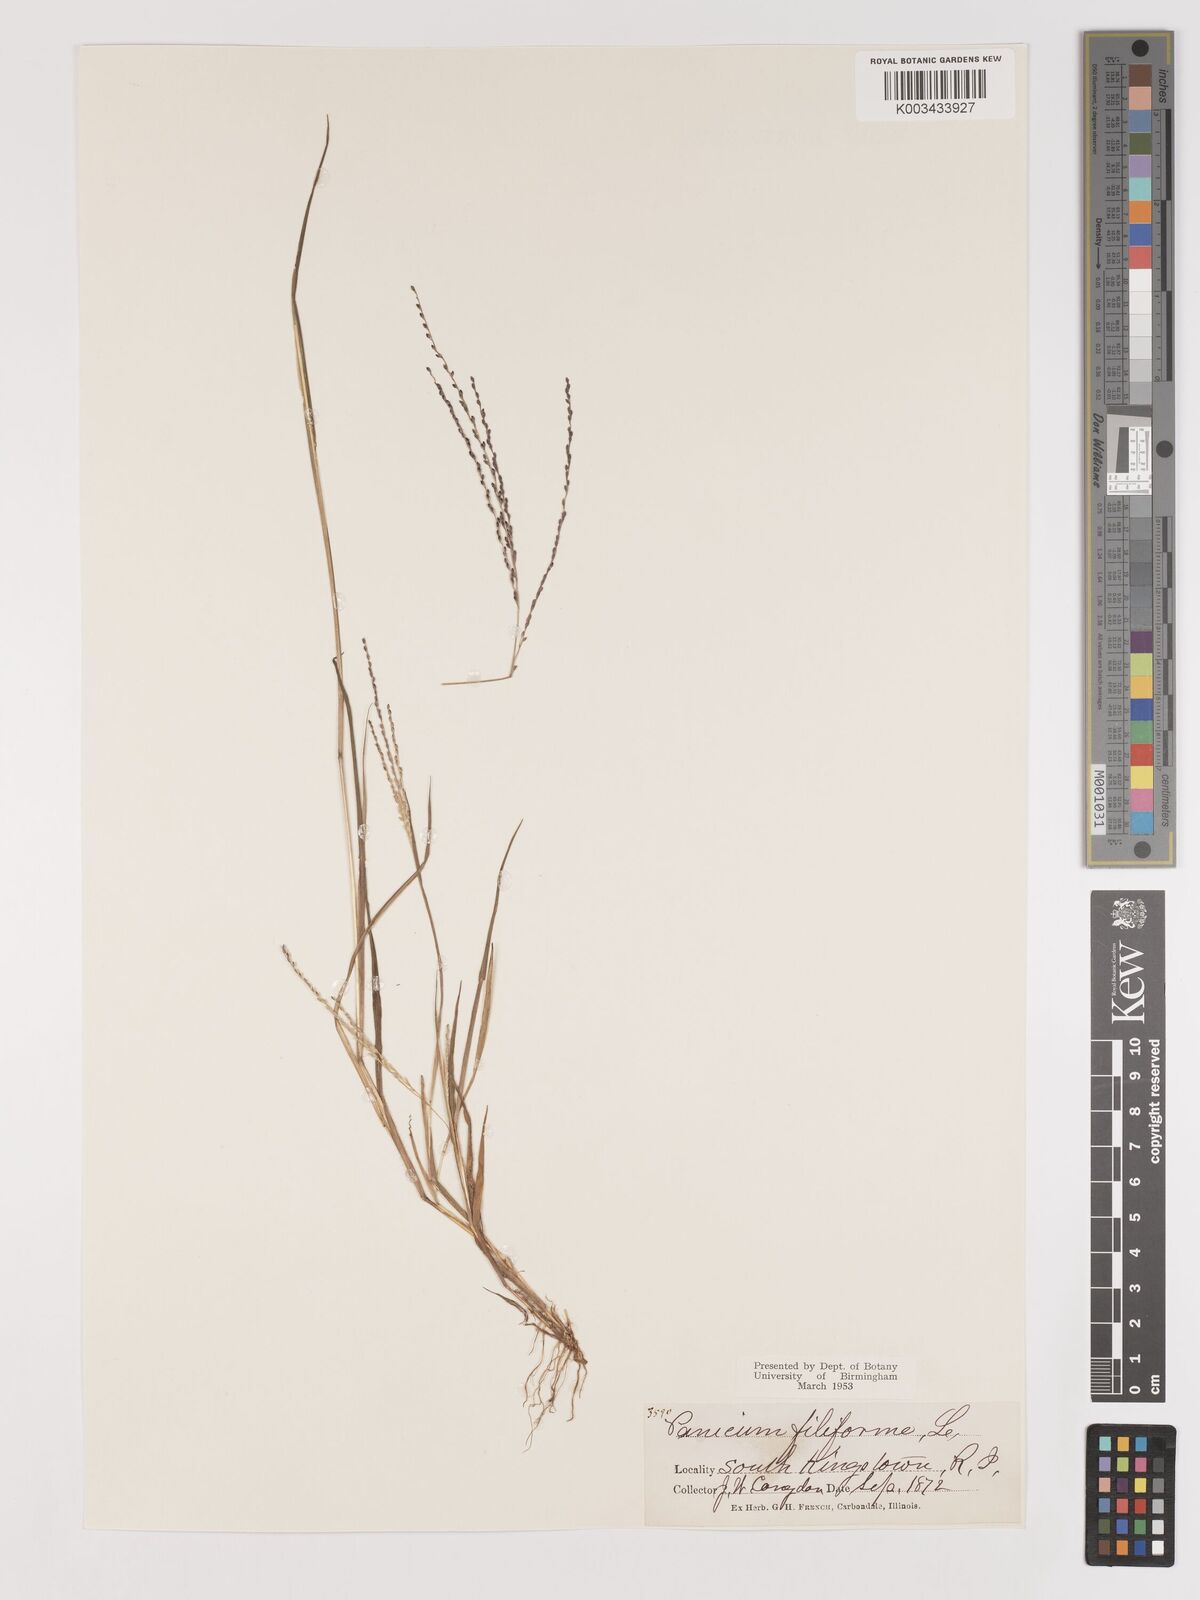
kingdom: Plantae
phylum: Tracheophyta
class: Liliopsida
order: Poales
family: Poaceae
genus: Digitaria
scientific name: Digitaria filiformis
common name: Slender crabgrass
